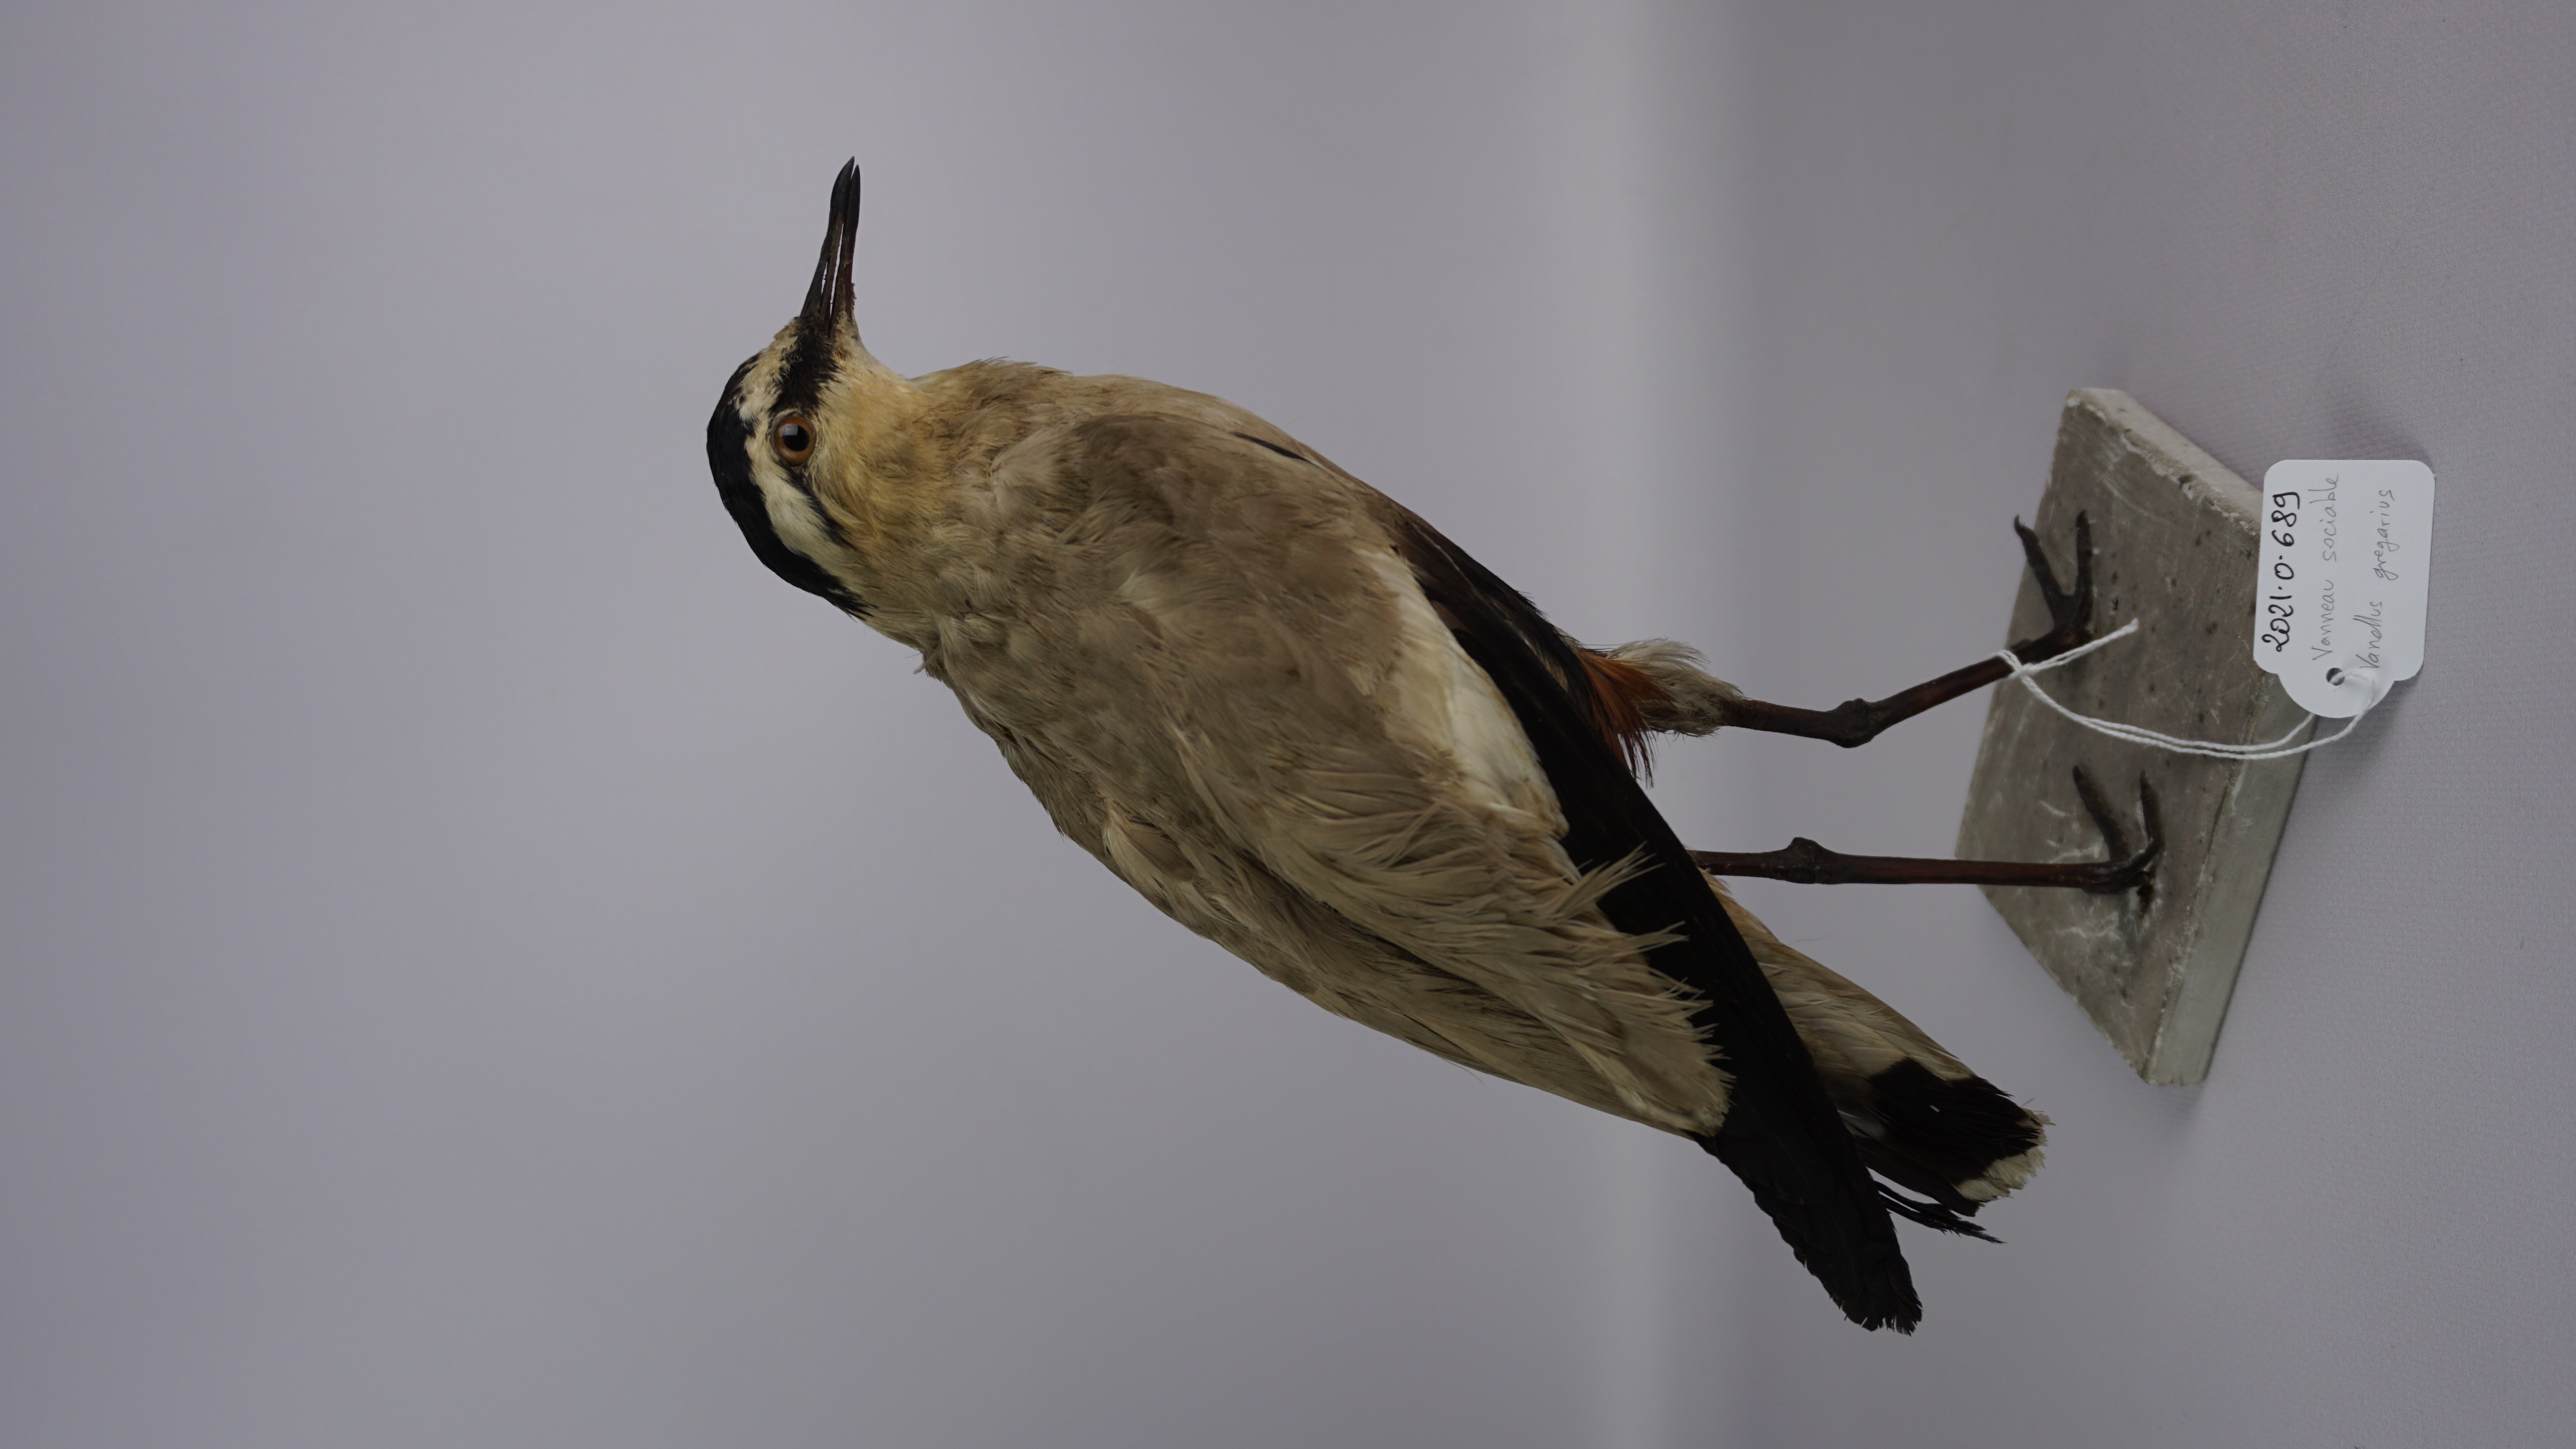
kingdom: Animalia
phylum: Chordata
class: Aves
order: Charadriiformes
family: Charadriidae
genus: Vanellus
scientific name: Vanellus gregarius
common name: Sociable lapwing
